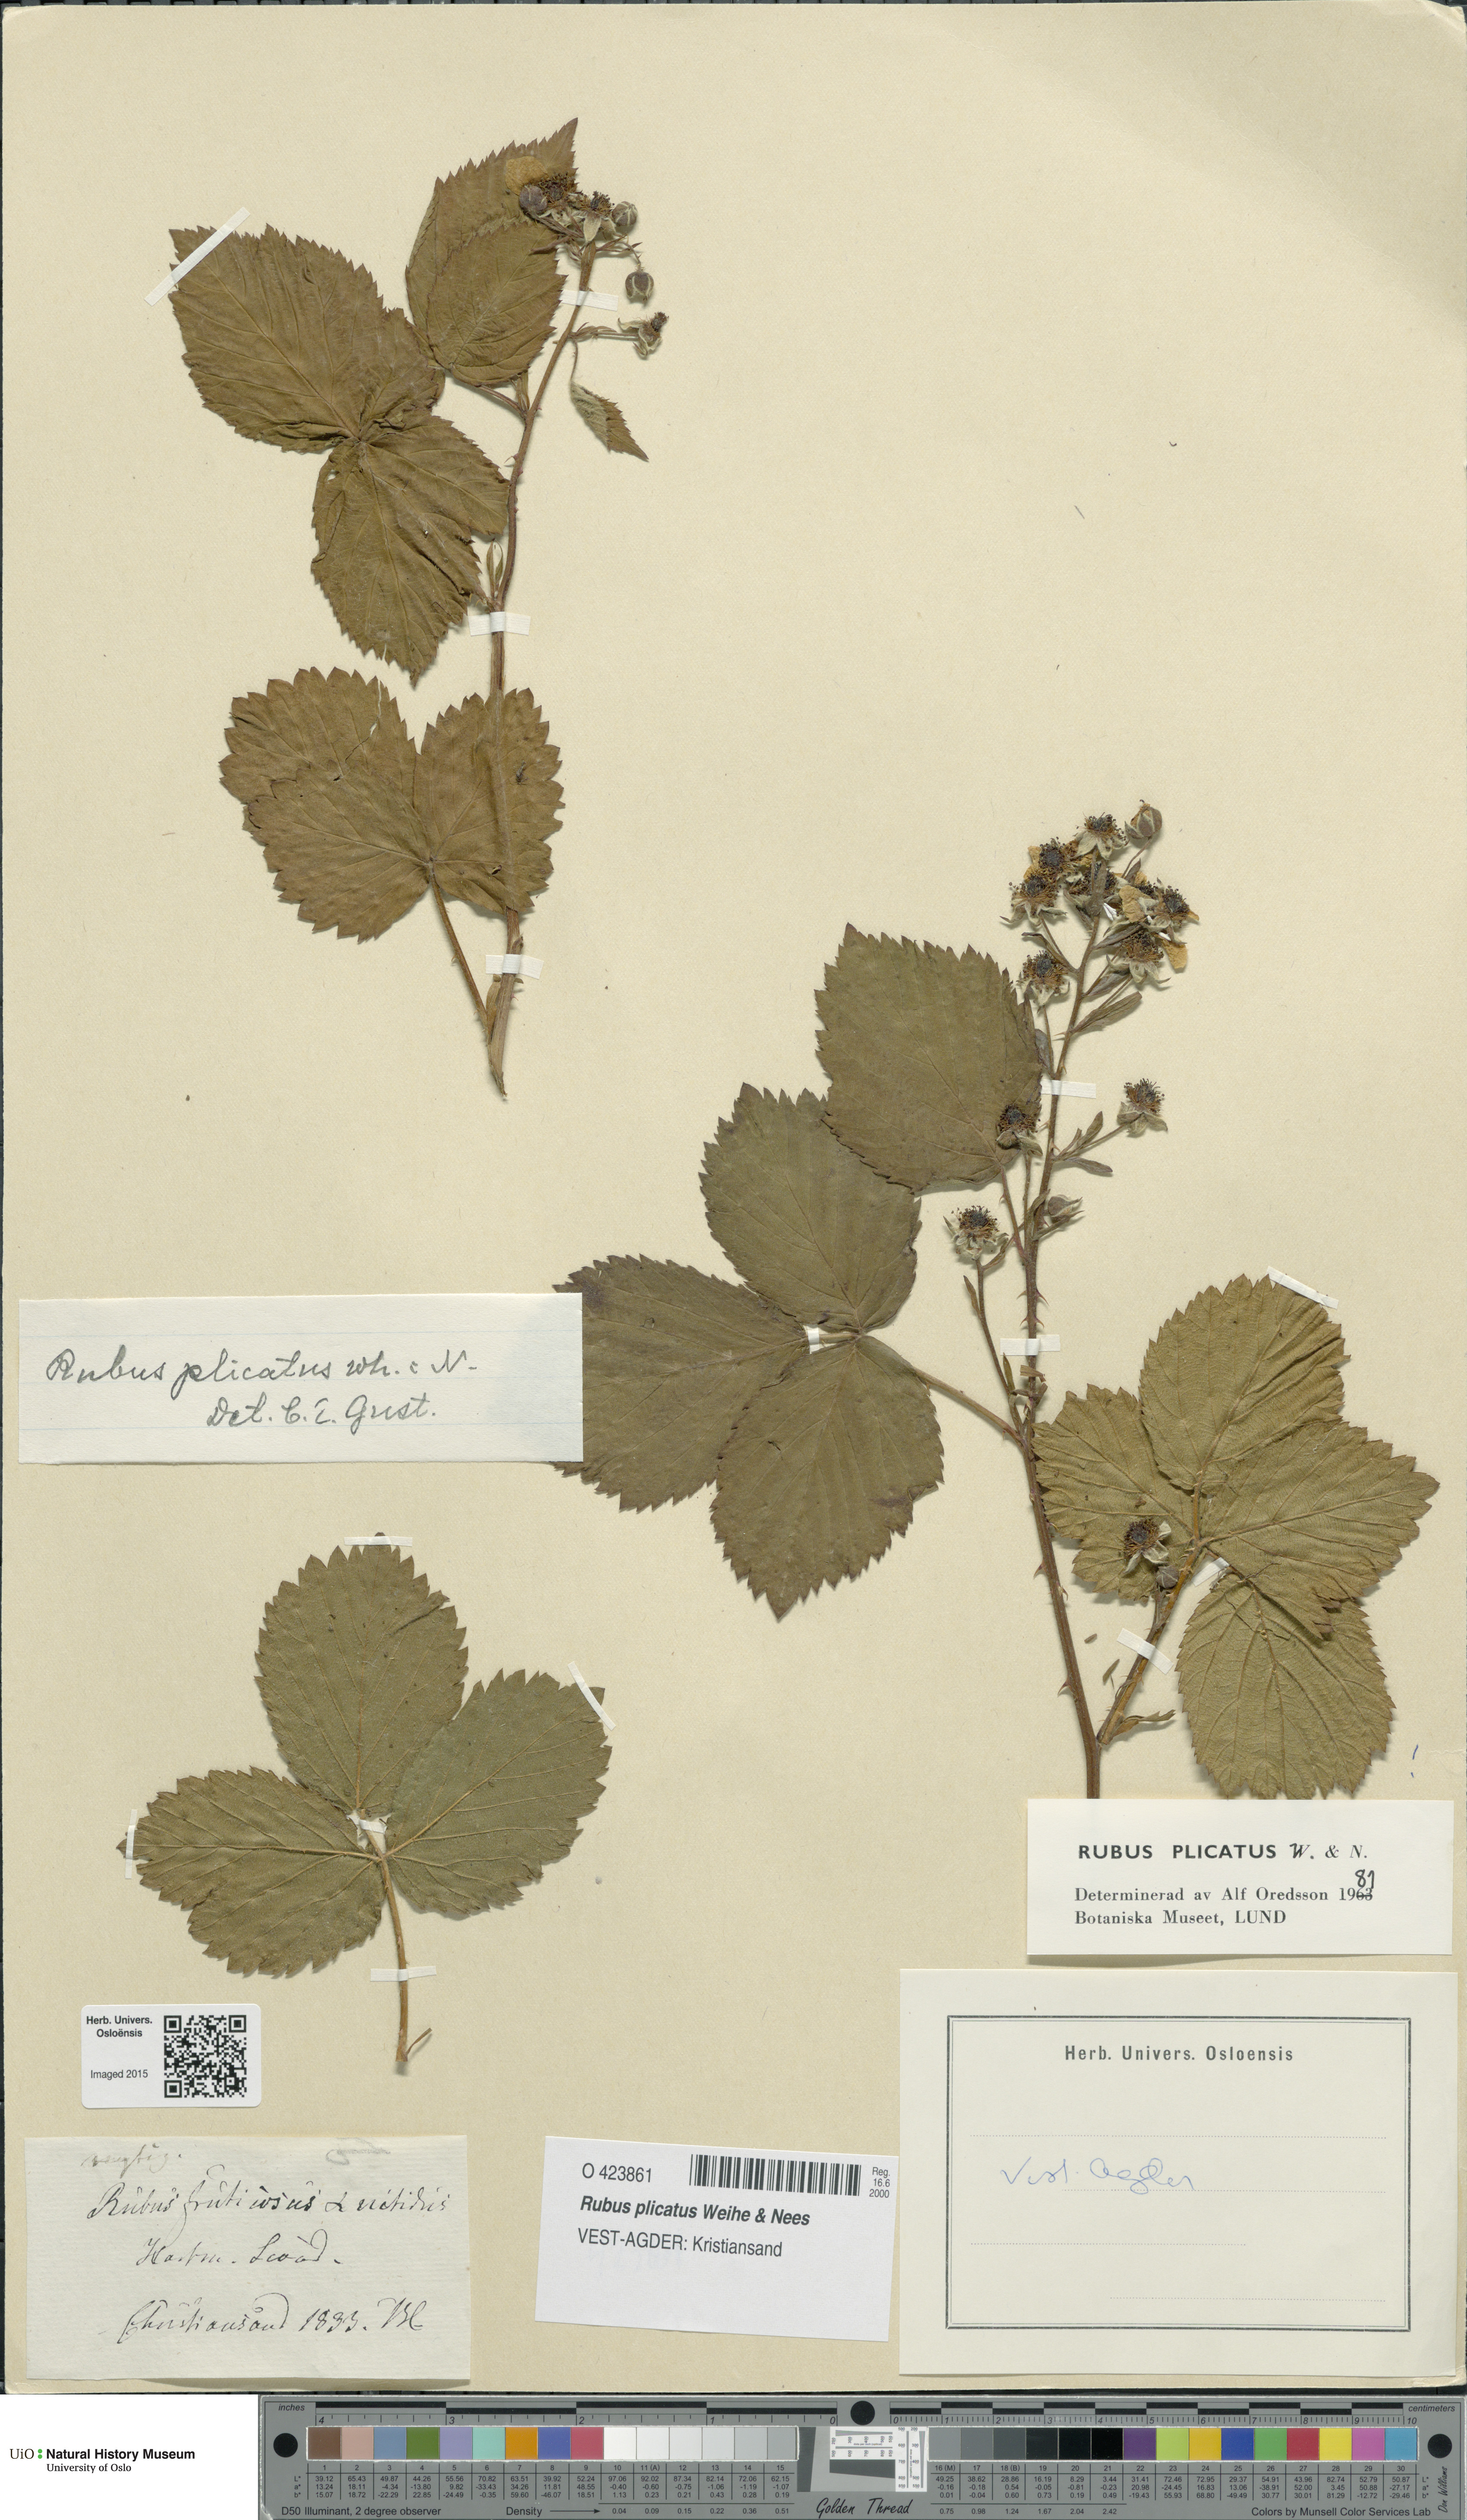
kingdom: Plantae
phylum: Tracheophyta
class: Magnoliopsida
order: Rosales
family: Rosaceae
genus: Rubus
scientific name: Rubus fruticosus
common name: Blackberry, bramble
